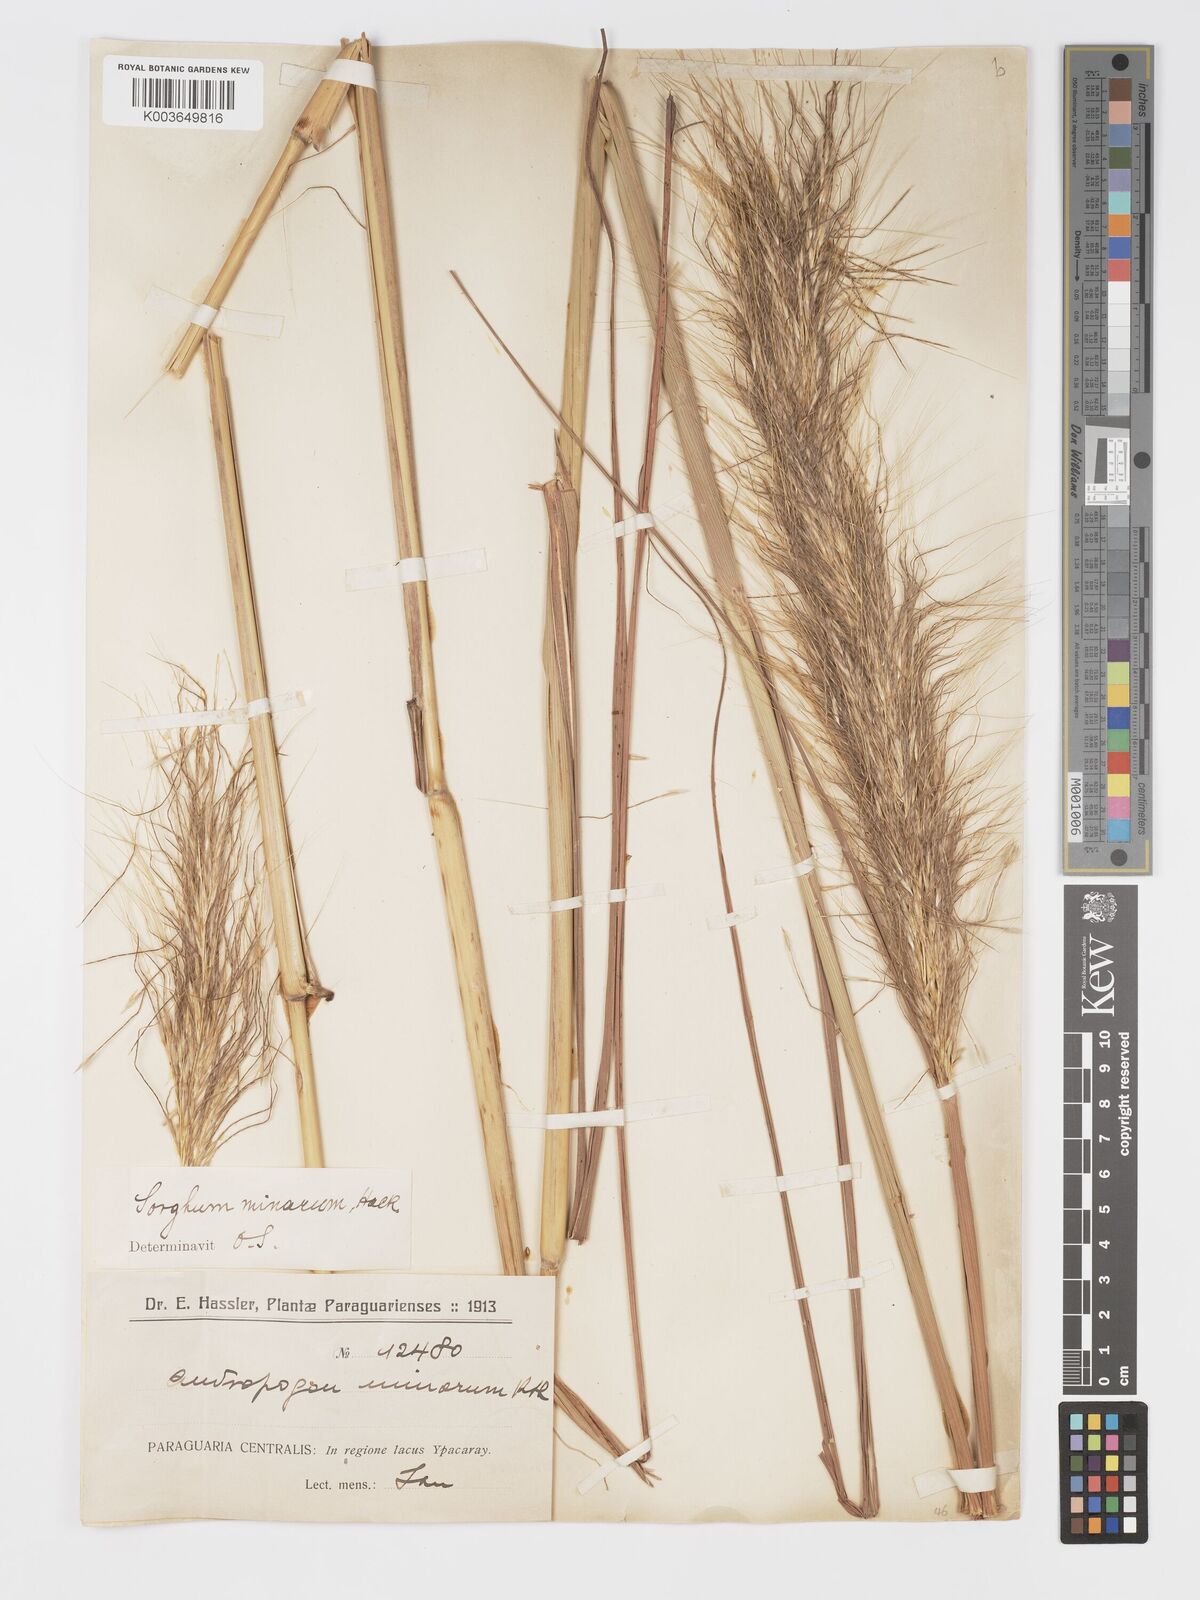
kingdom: Plantae
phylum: Tracheophyta
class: Liliopsida
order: Poales
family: Poaceae
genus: Sorghastrum
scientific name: Sorghastrum balansae
